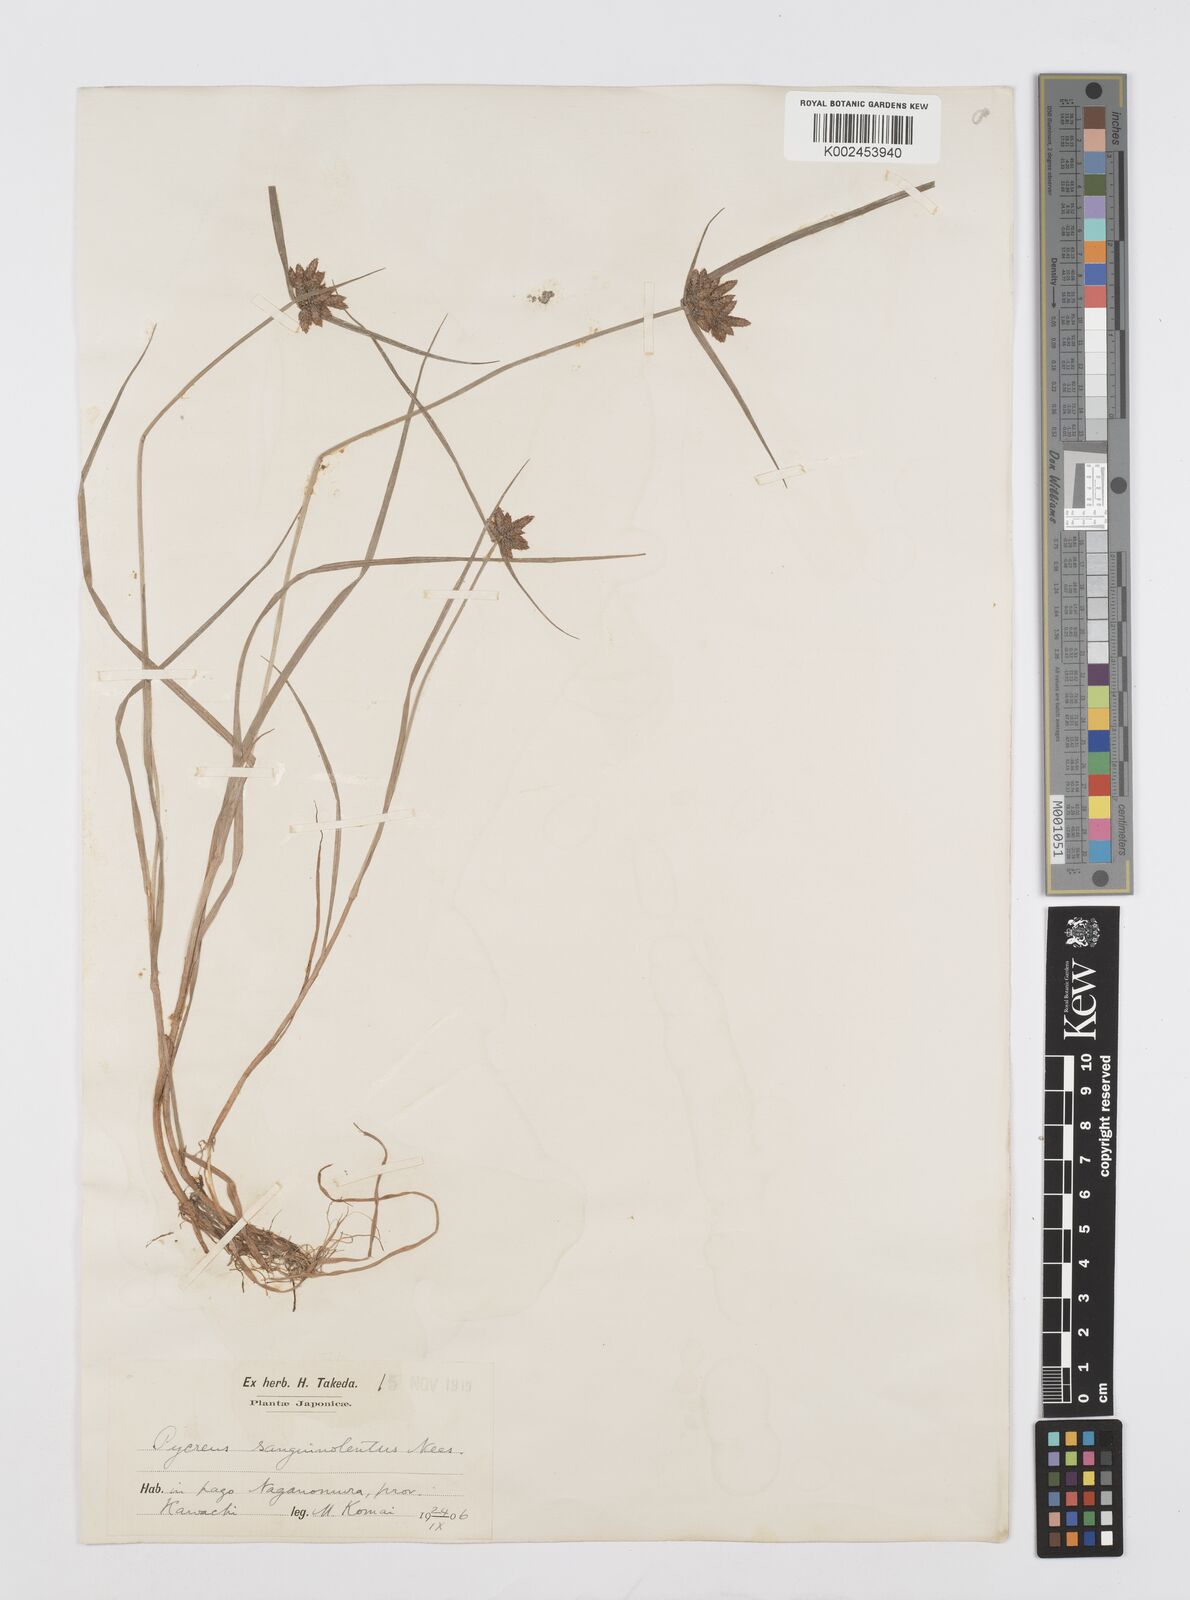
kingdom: Plantae
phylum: Tracheophyta
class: Liliopsida
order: Poales
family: Cyperaceae
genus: Cyperus
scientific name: Cyperus sanguinolentus
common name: Purpleglume flatsedge
